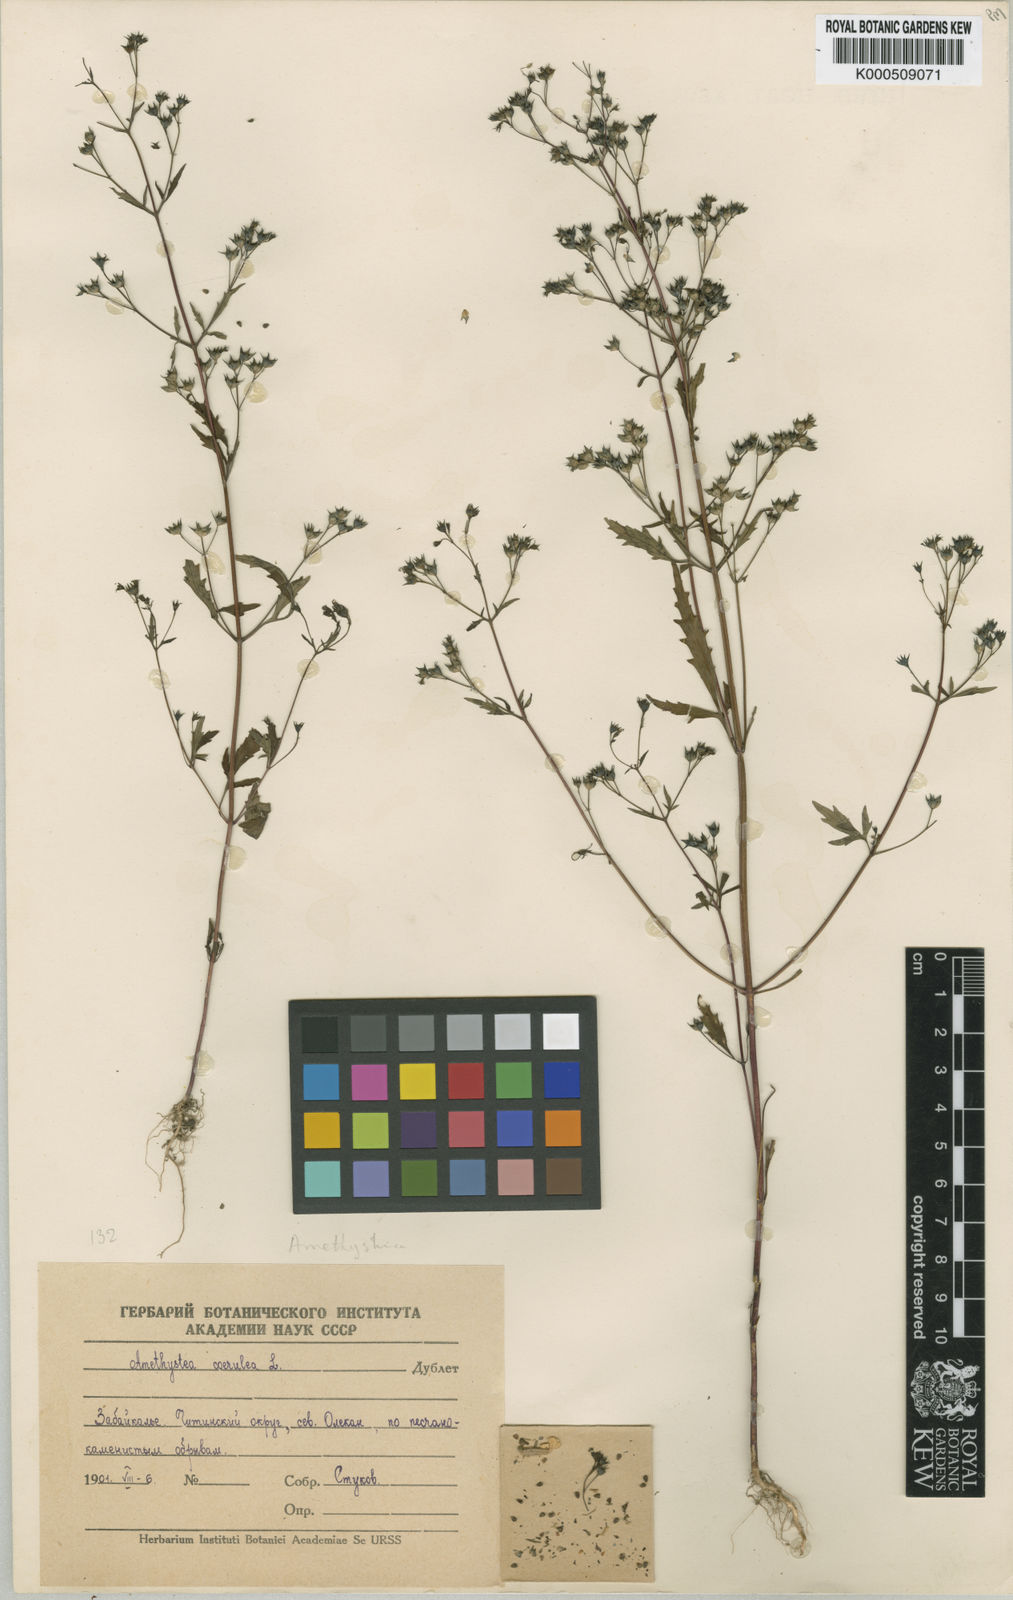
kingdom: Plantae
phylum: Tracheophyta
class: Magnoliopsida
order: Lamiales
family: Lamiaceae
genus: Amethystea
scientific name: Amethystea caerulea
